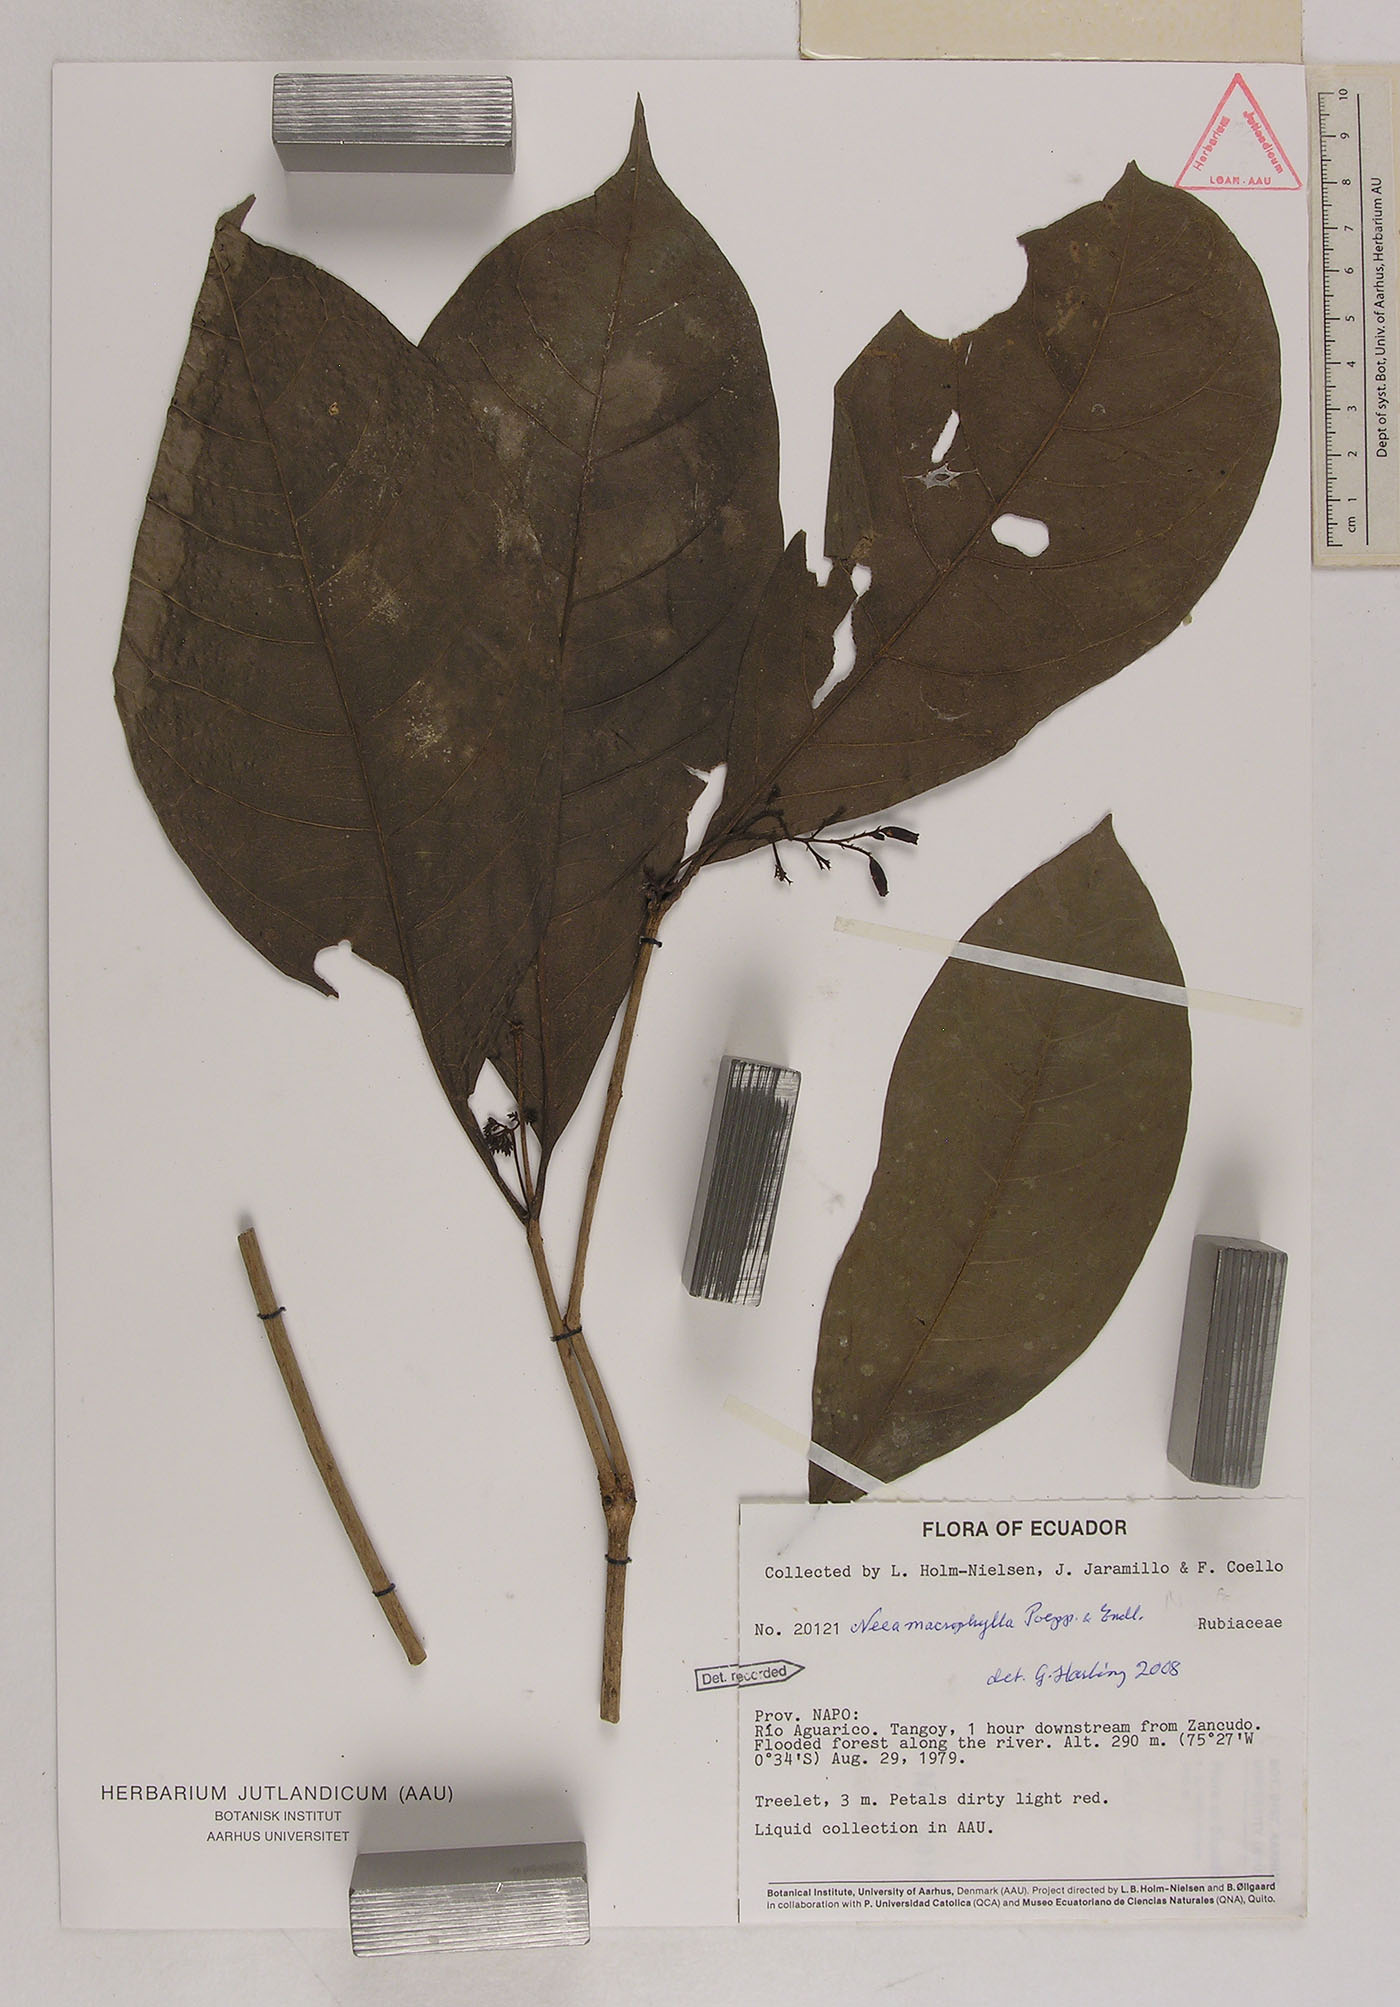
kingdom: Plantae
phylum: Tracheophyta
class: Magnoliopsida
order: Caryophyllales
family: Nyctaginaceae
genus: Neea
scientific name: Neea macrophylla
